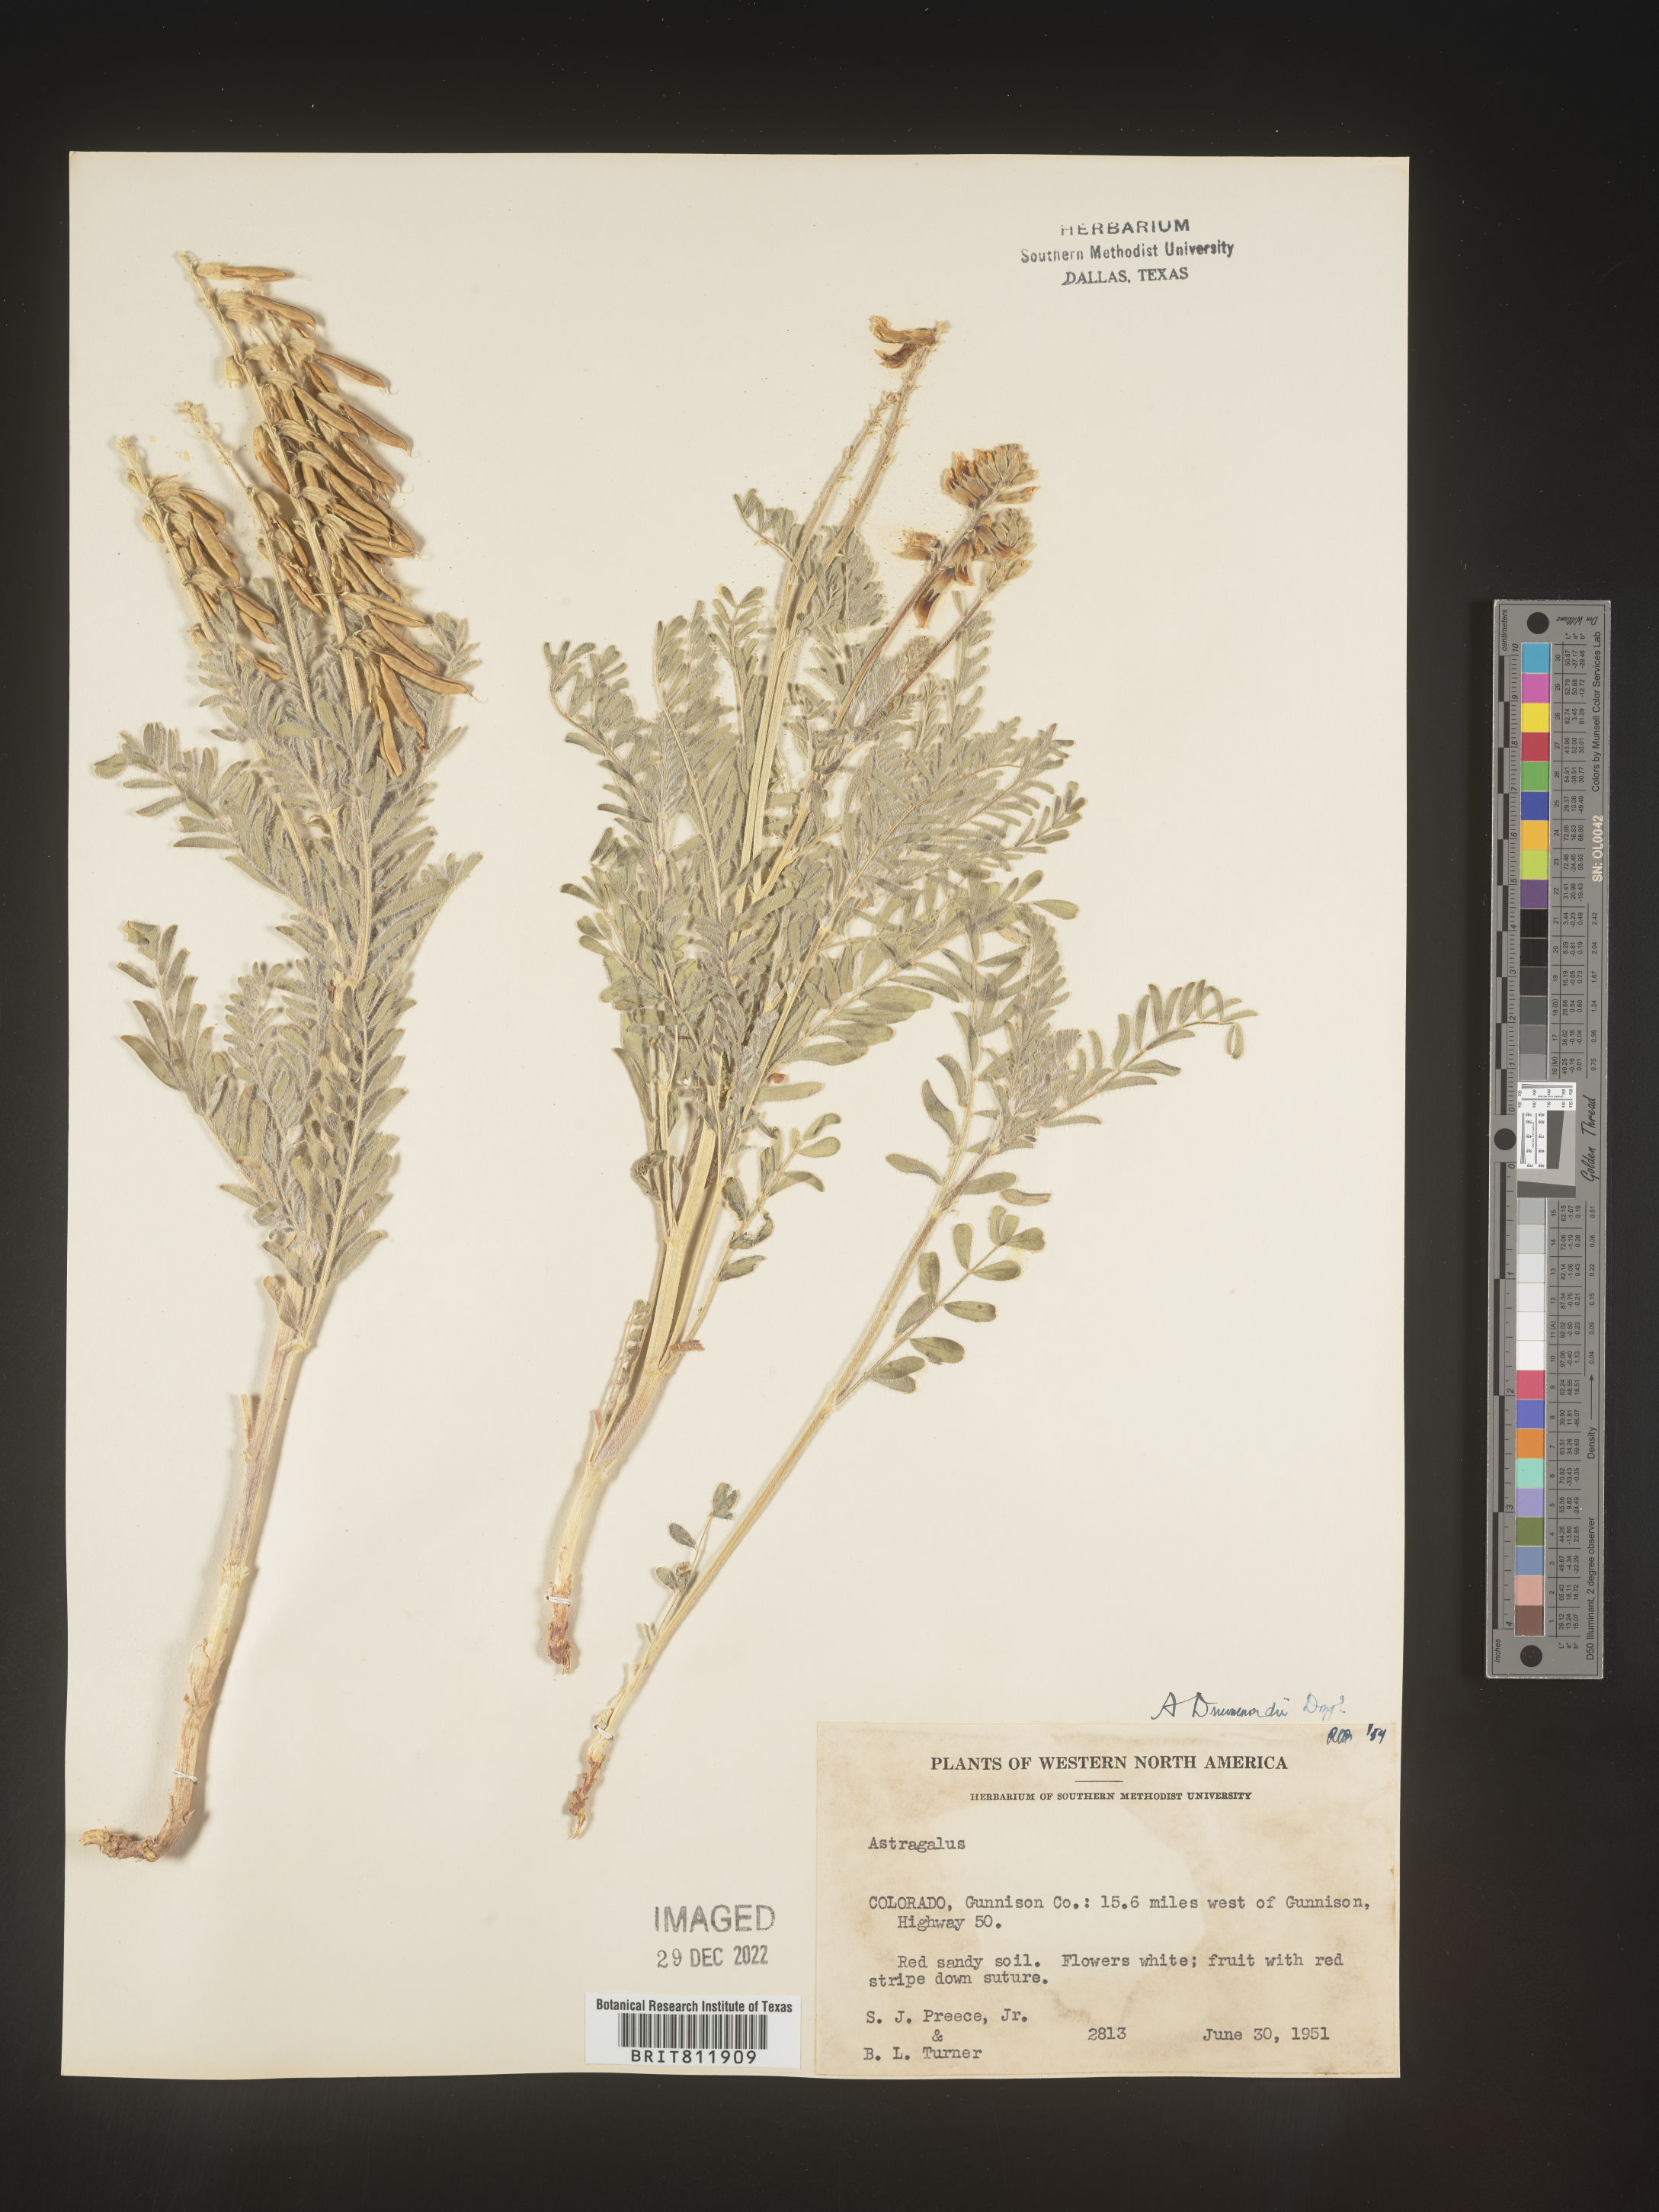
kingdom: Plantae
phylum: Tracheophyta
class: Magnoliopsida
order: Fabales
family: Fabaceae
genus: Astragalus
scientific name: Astragalus drummondii
